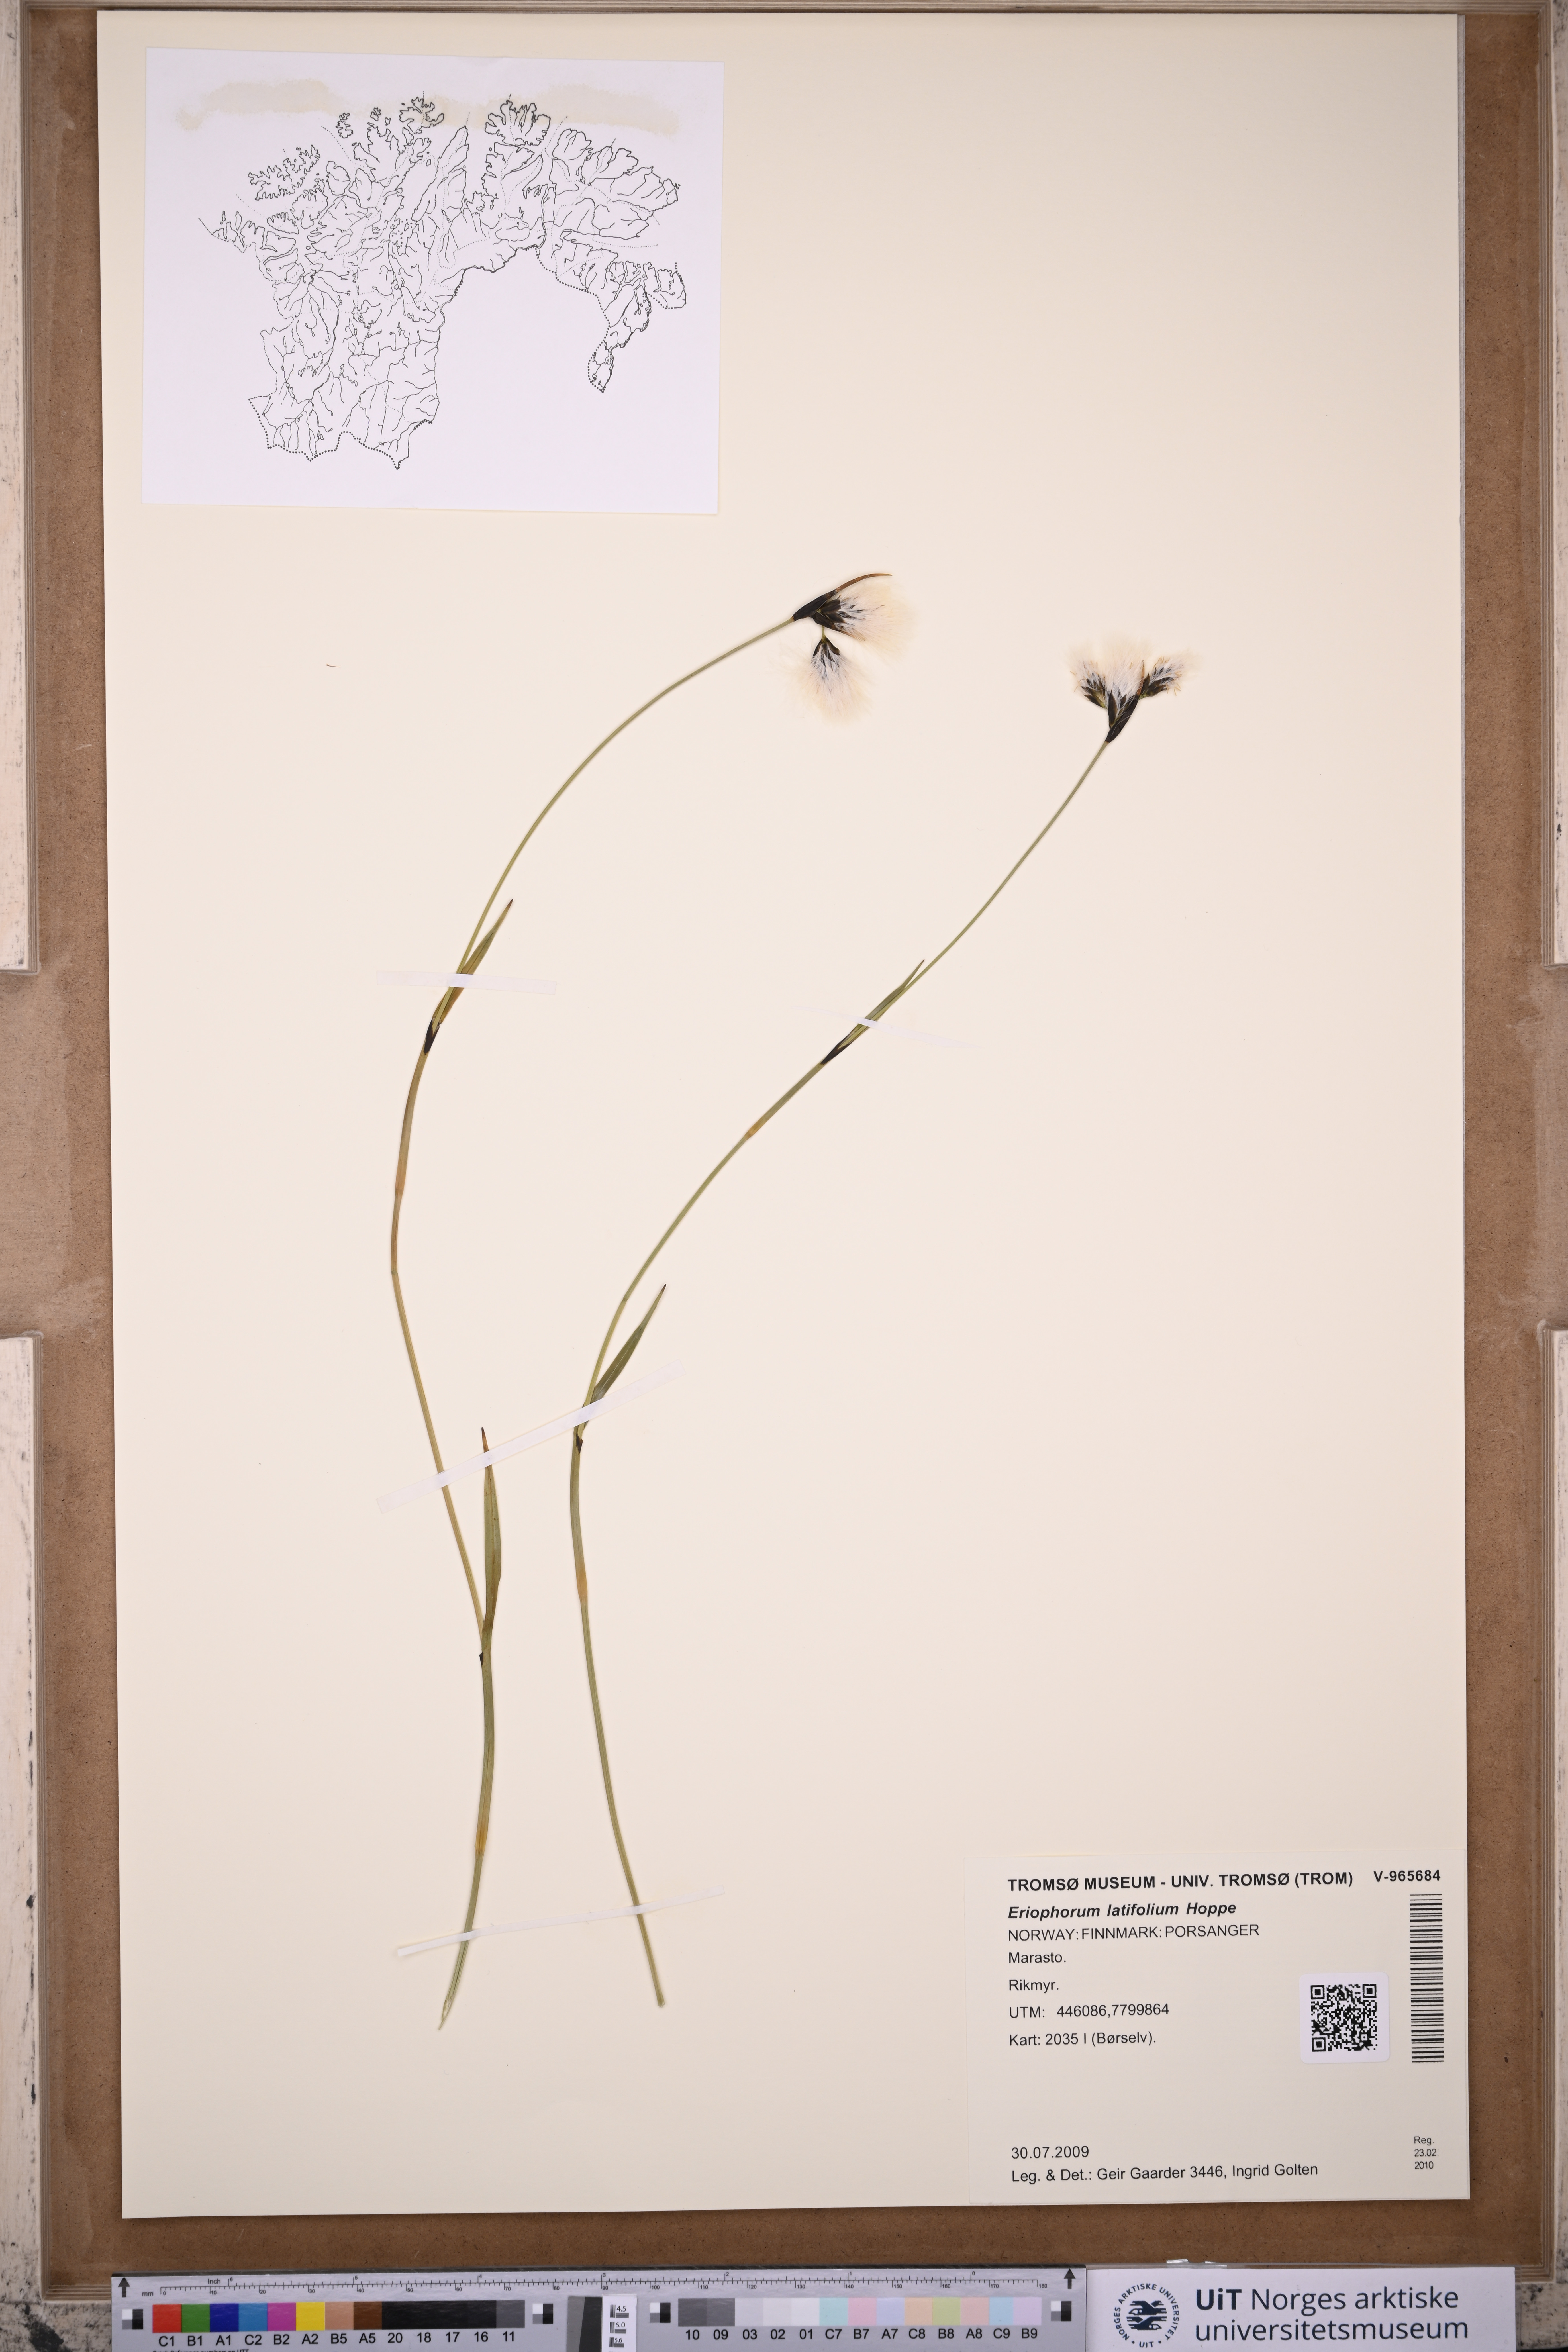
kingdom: Plantae
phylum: Tracheophyta
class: Liliopsida
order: Poales
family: Cyperaceae
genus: Eriophorum
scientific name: Eriophorum latifolium
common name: Broad-leaved cottongrass
